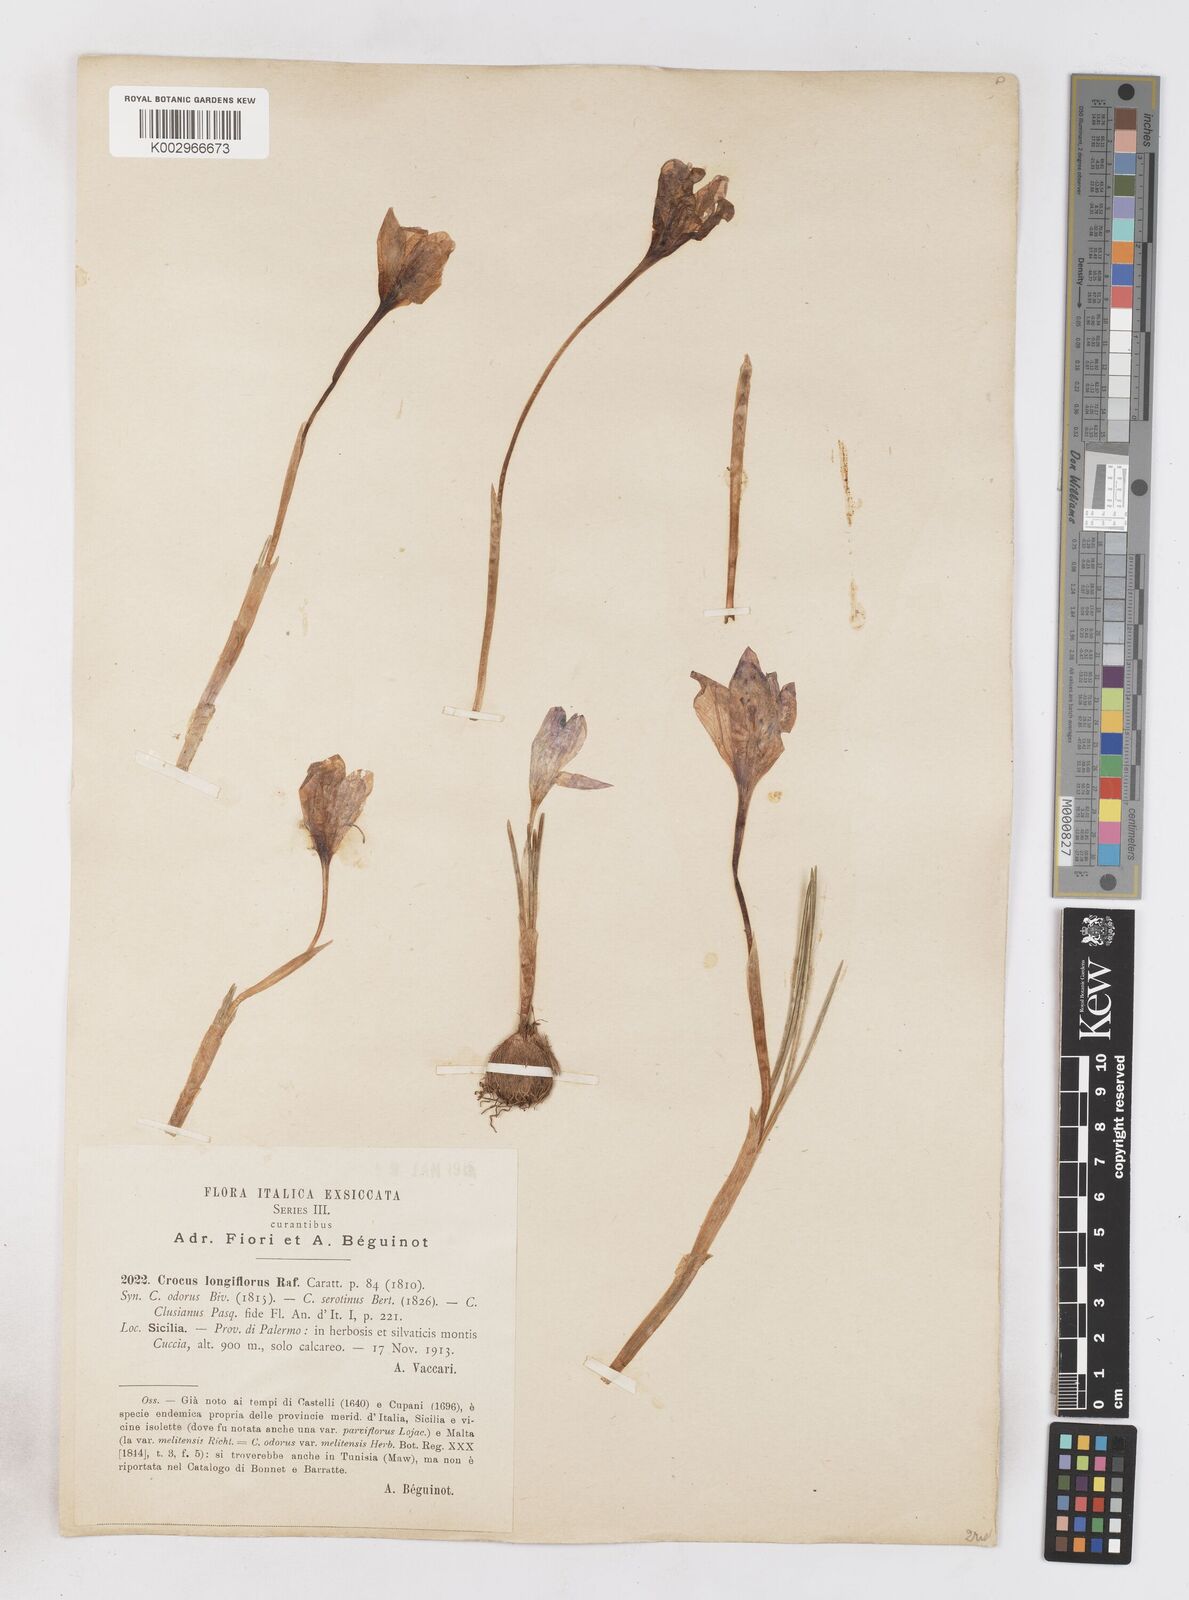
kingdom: Plantae
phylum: Tracheophyta
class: Liliopsida
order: Asparagales
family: Iridaceae
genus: Crocus
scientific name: Crocus longiflorus
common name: Italian crocus
